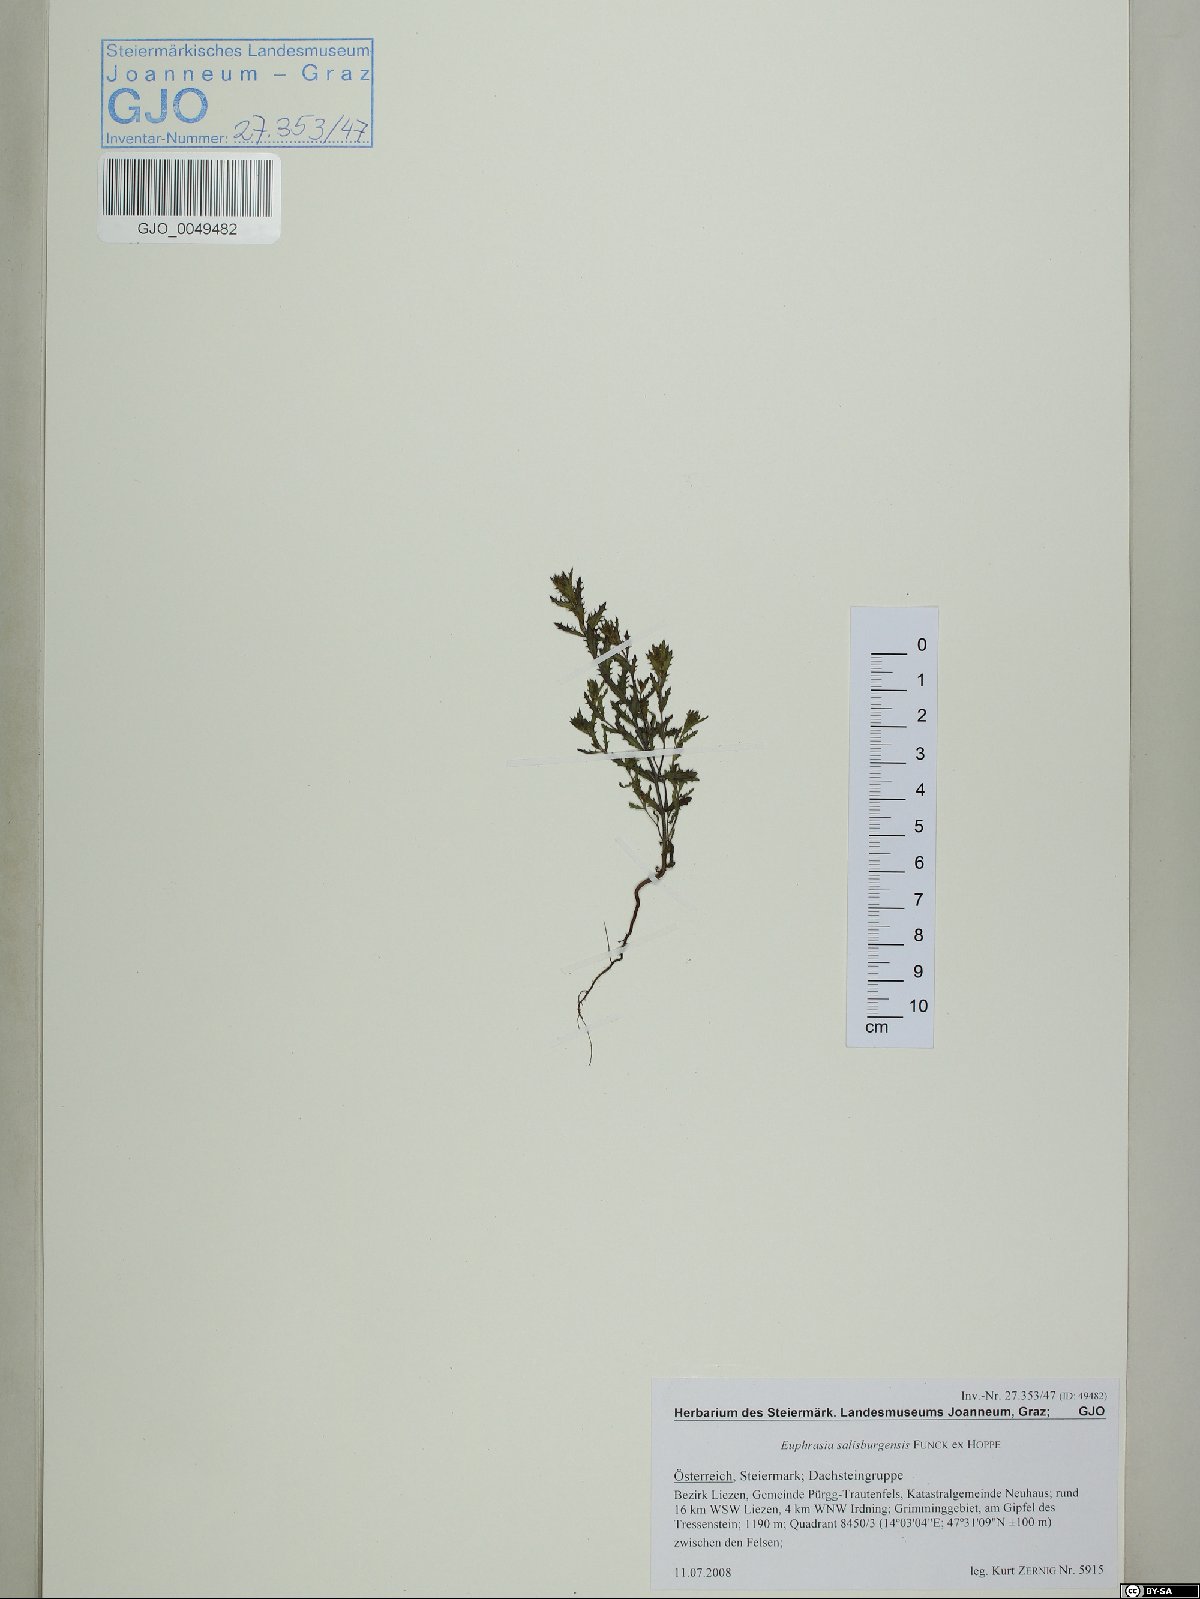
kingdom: Plantae
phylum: Tracheophyta
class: Magnoliopsida
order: Lamiales
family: Orobanchaceae
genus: Euphrasia
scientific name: Euphrasia salisburgensis
